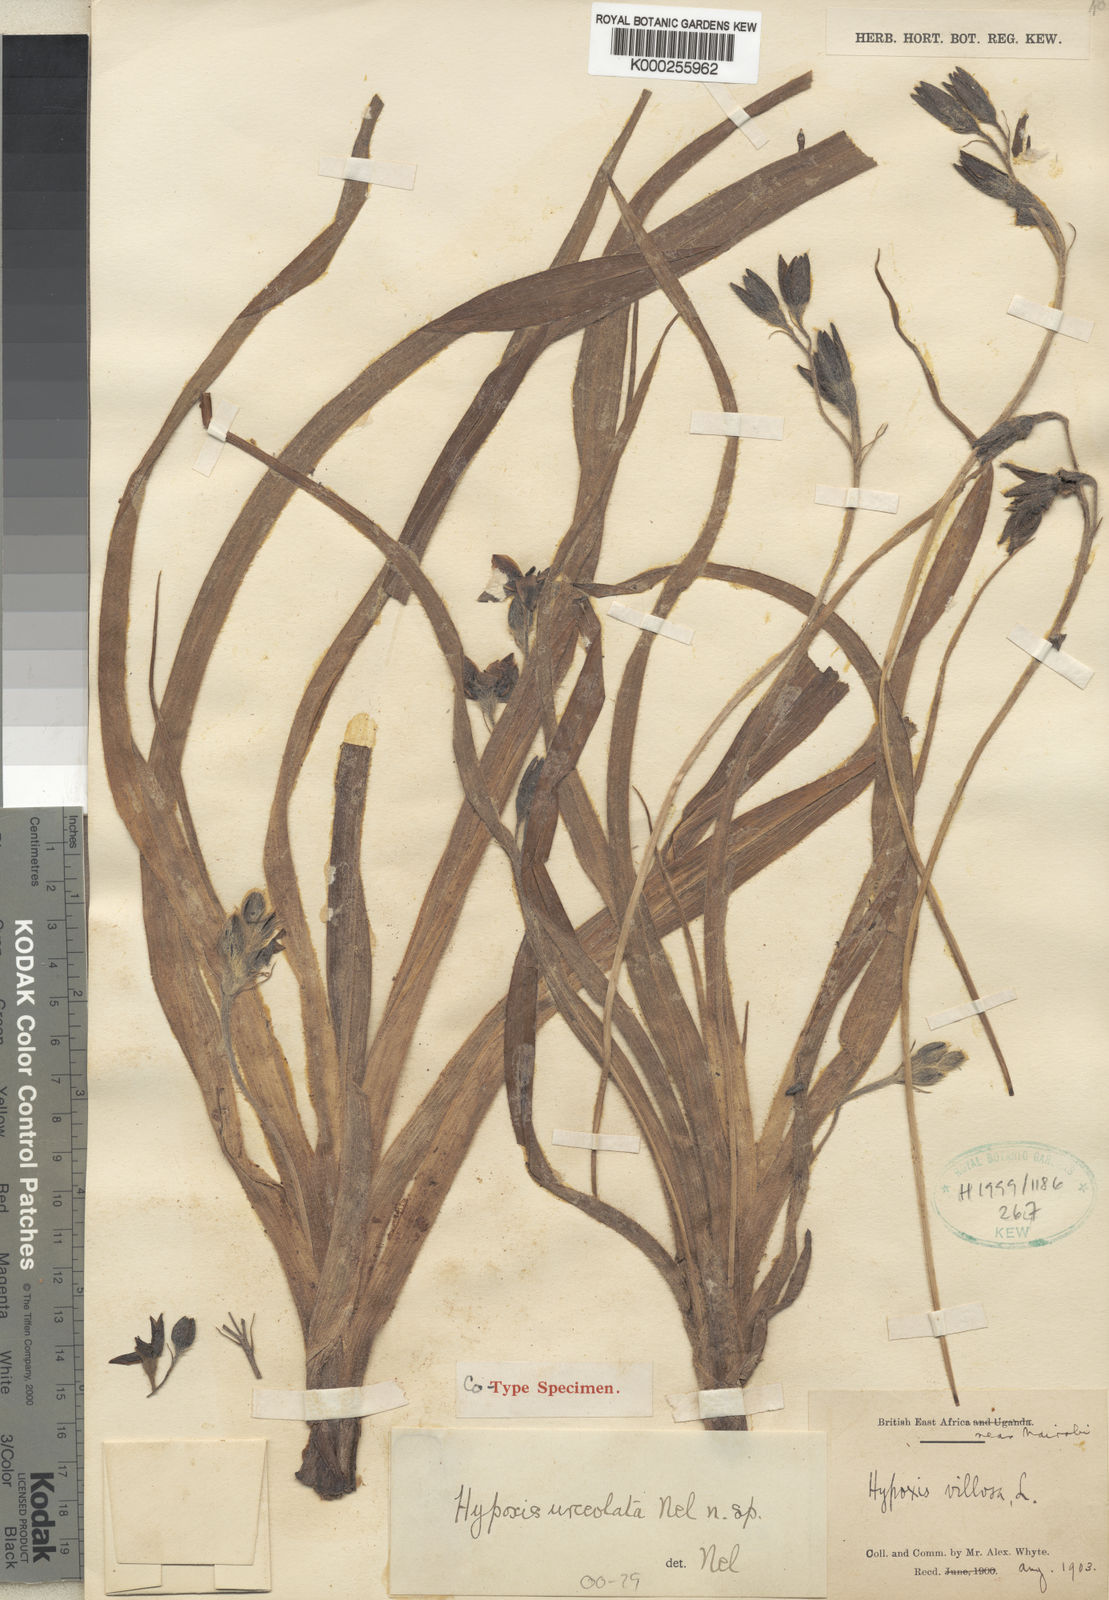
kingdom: Plantae
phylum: Tracheophyta
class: Liliopsida
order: Asparagales
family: Hypoxidaceae
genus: Hypoxis
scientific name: Hypoxis urceolata
